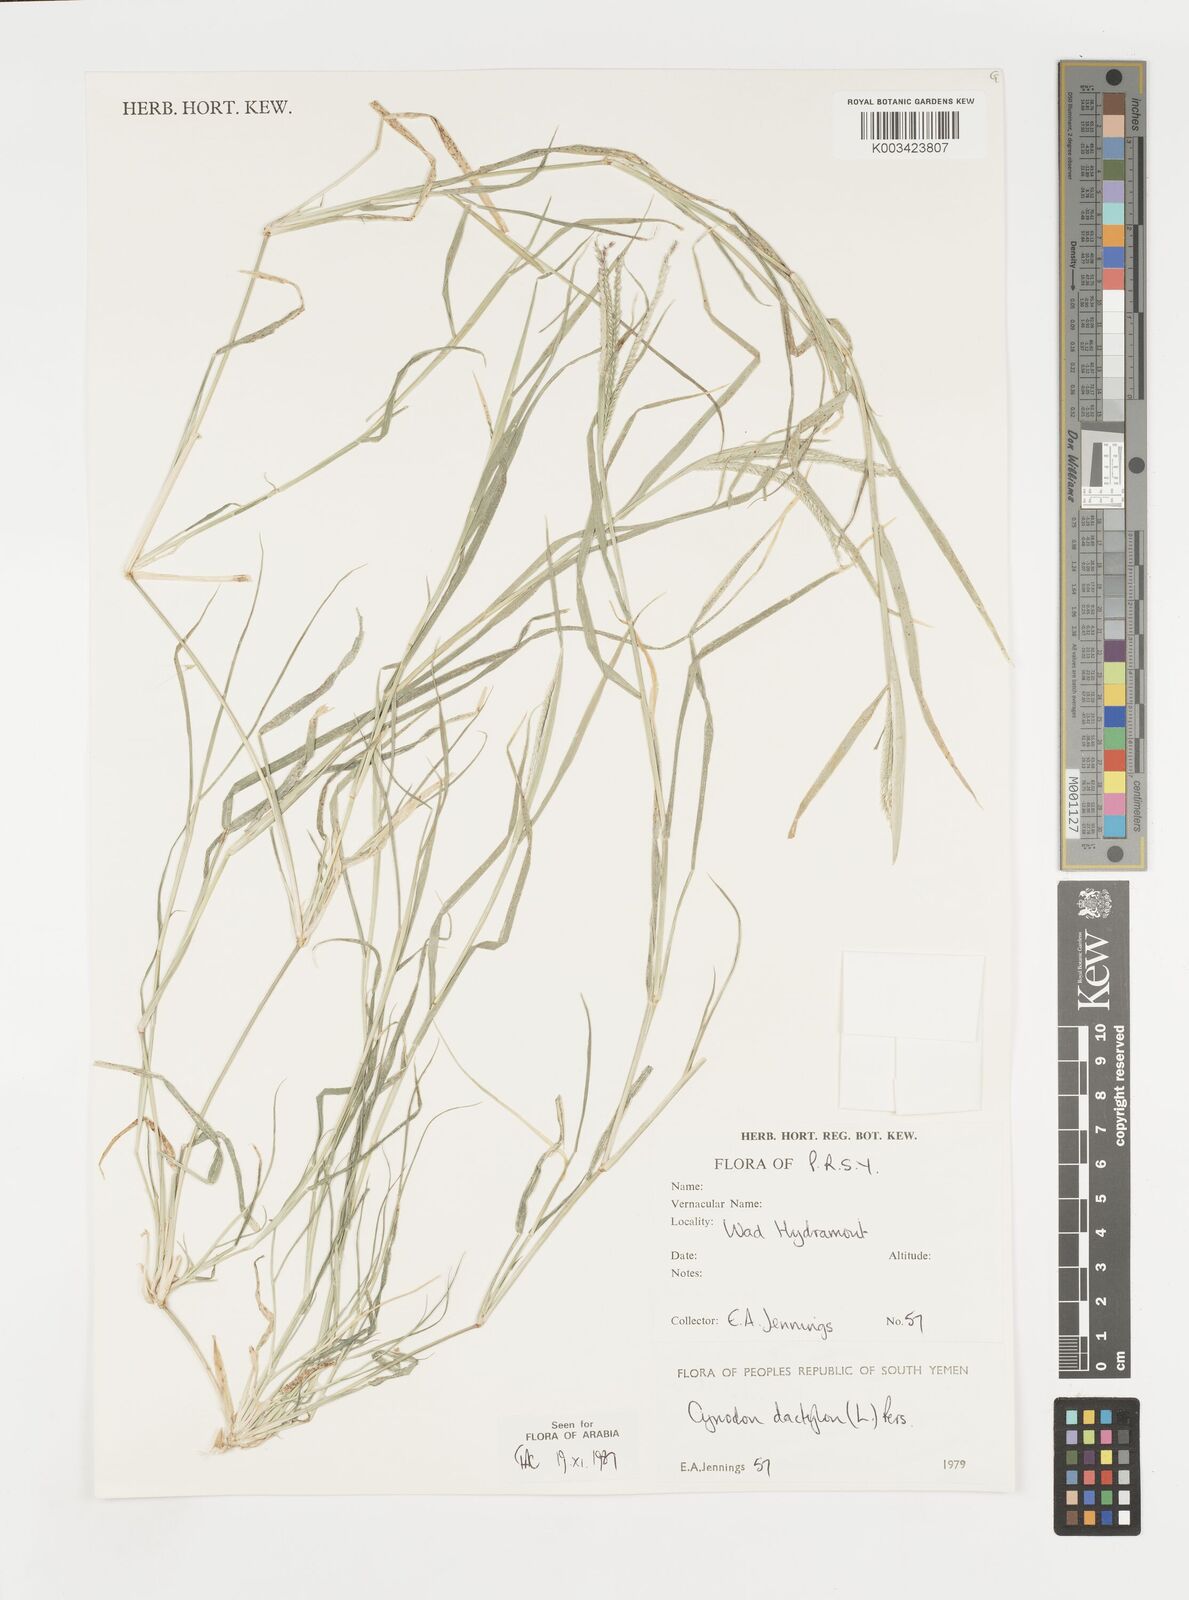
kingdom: Plantae
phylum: Tracheophyta
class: Liliopsida
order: Poales
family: Poaceae
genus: Cynodon
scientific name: Cynodon dactylon
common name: Bermuda grass
